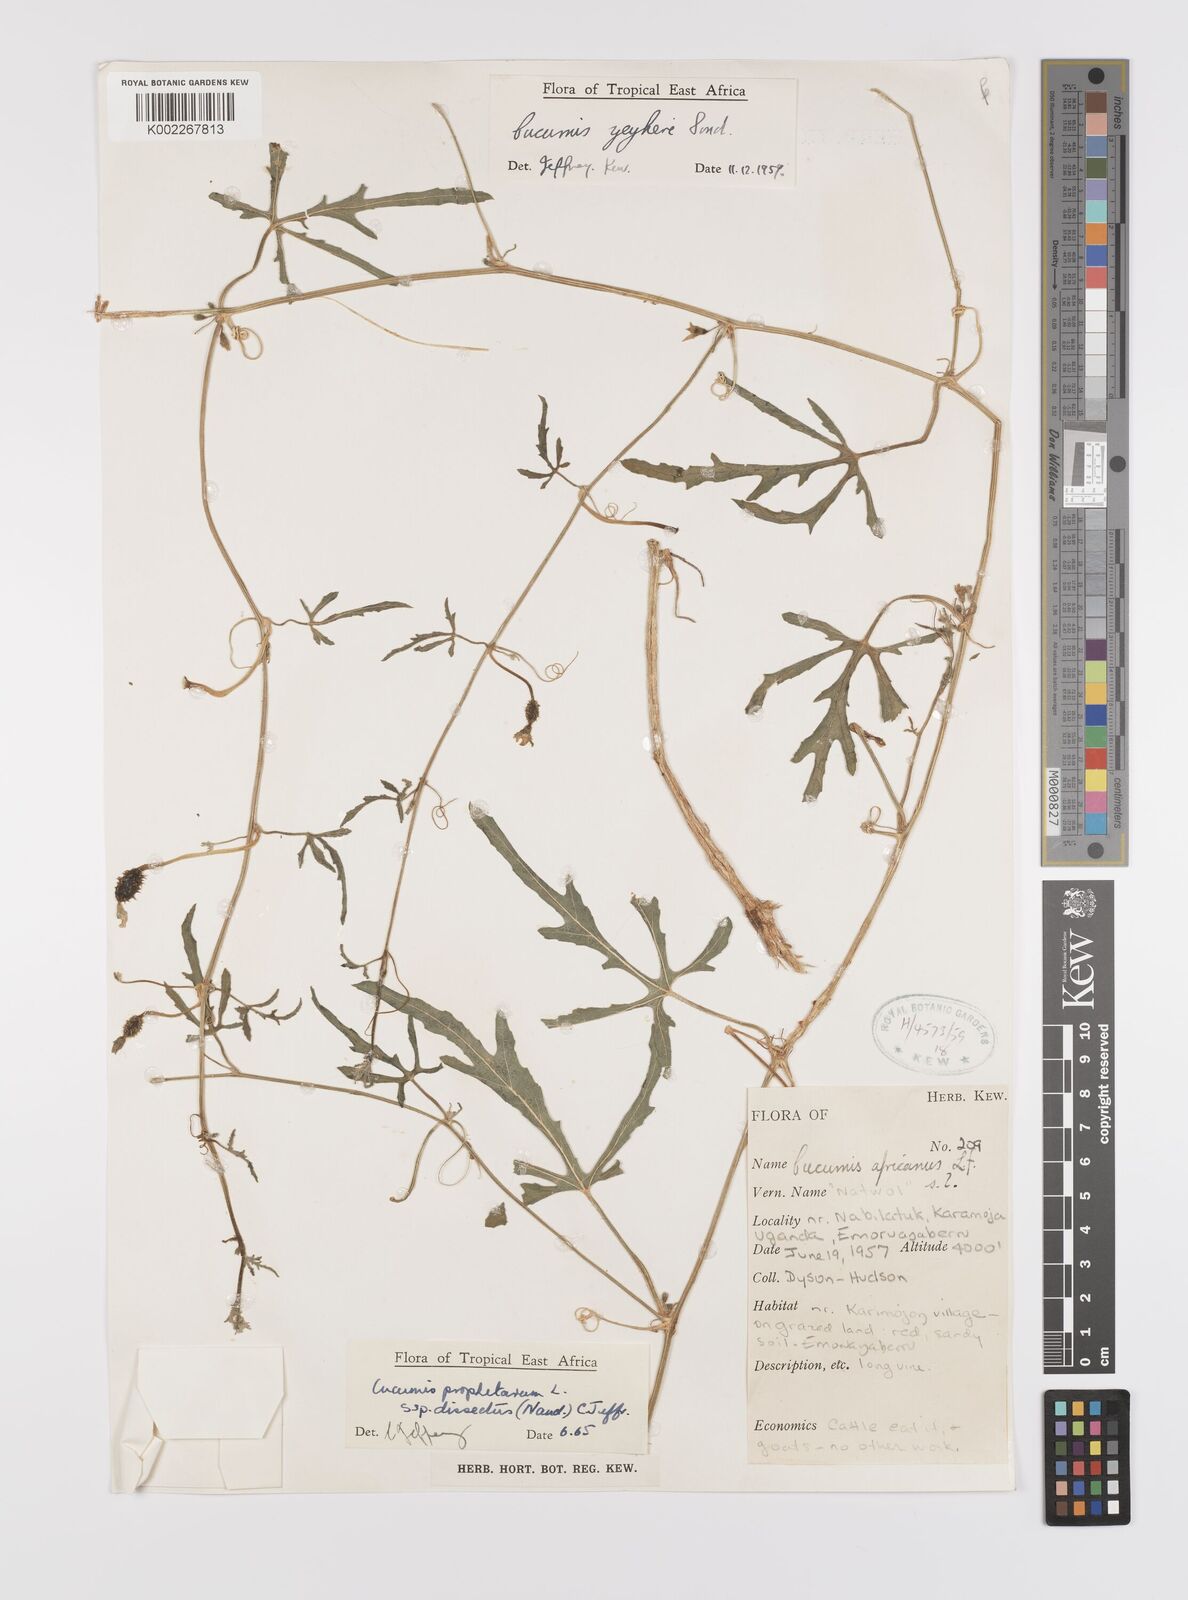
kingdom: Plantae
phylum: Tracheophyta
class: Magnoliopsida
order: Cucurbitales
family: Cucurbitaceae
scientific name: Cucurbitaceae
